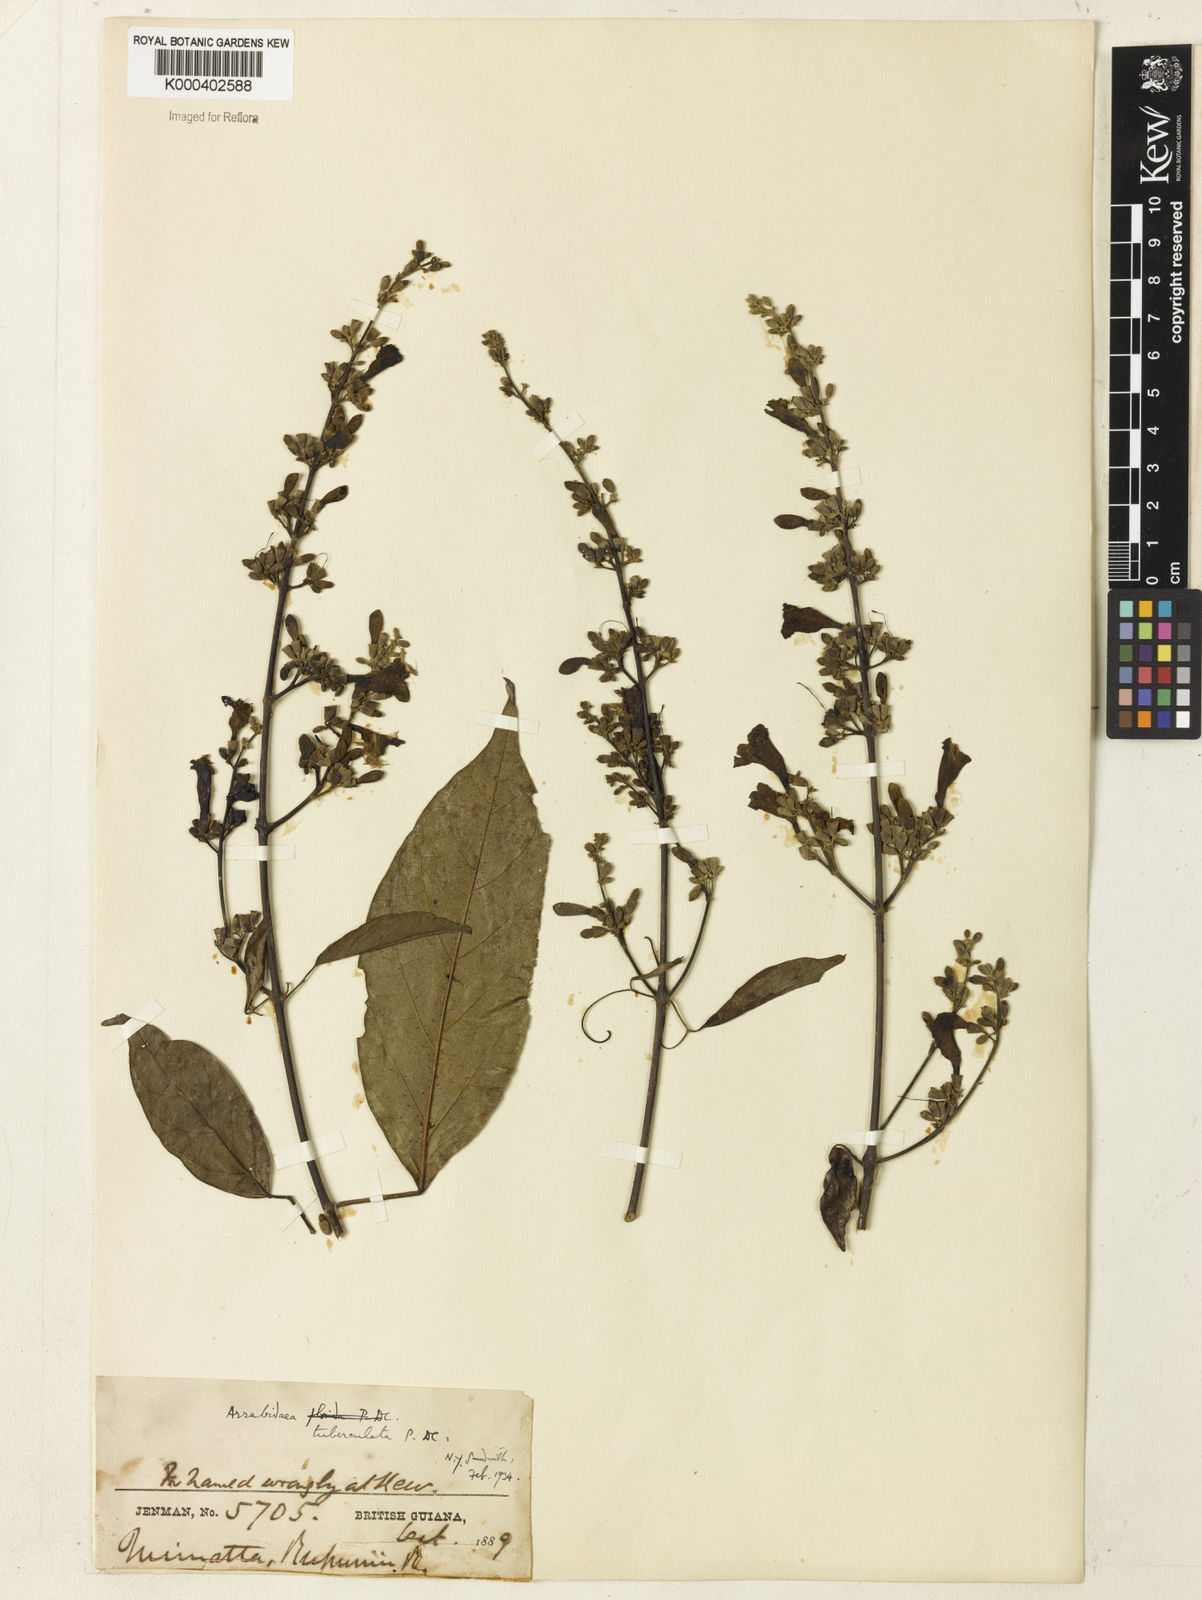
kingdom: Plantae
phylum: Tracheophyta
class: Magnoliopsida
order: Lamiales
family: Bignoniaceae
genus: Fridericia
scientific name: Fridericia tuberculata
